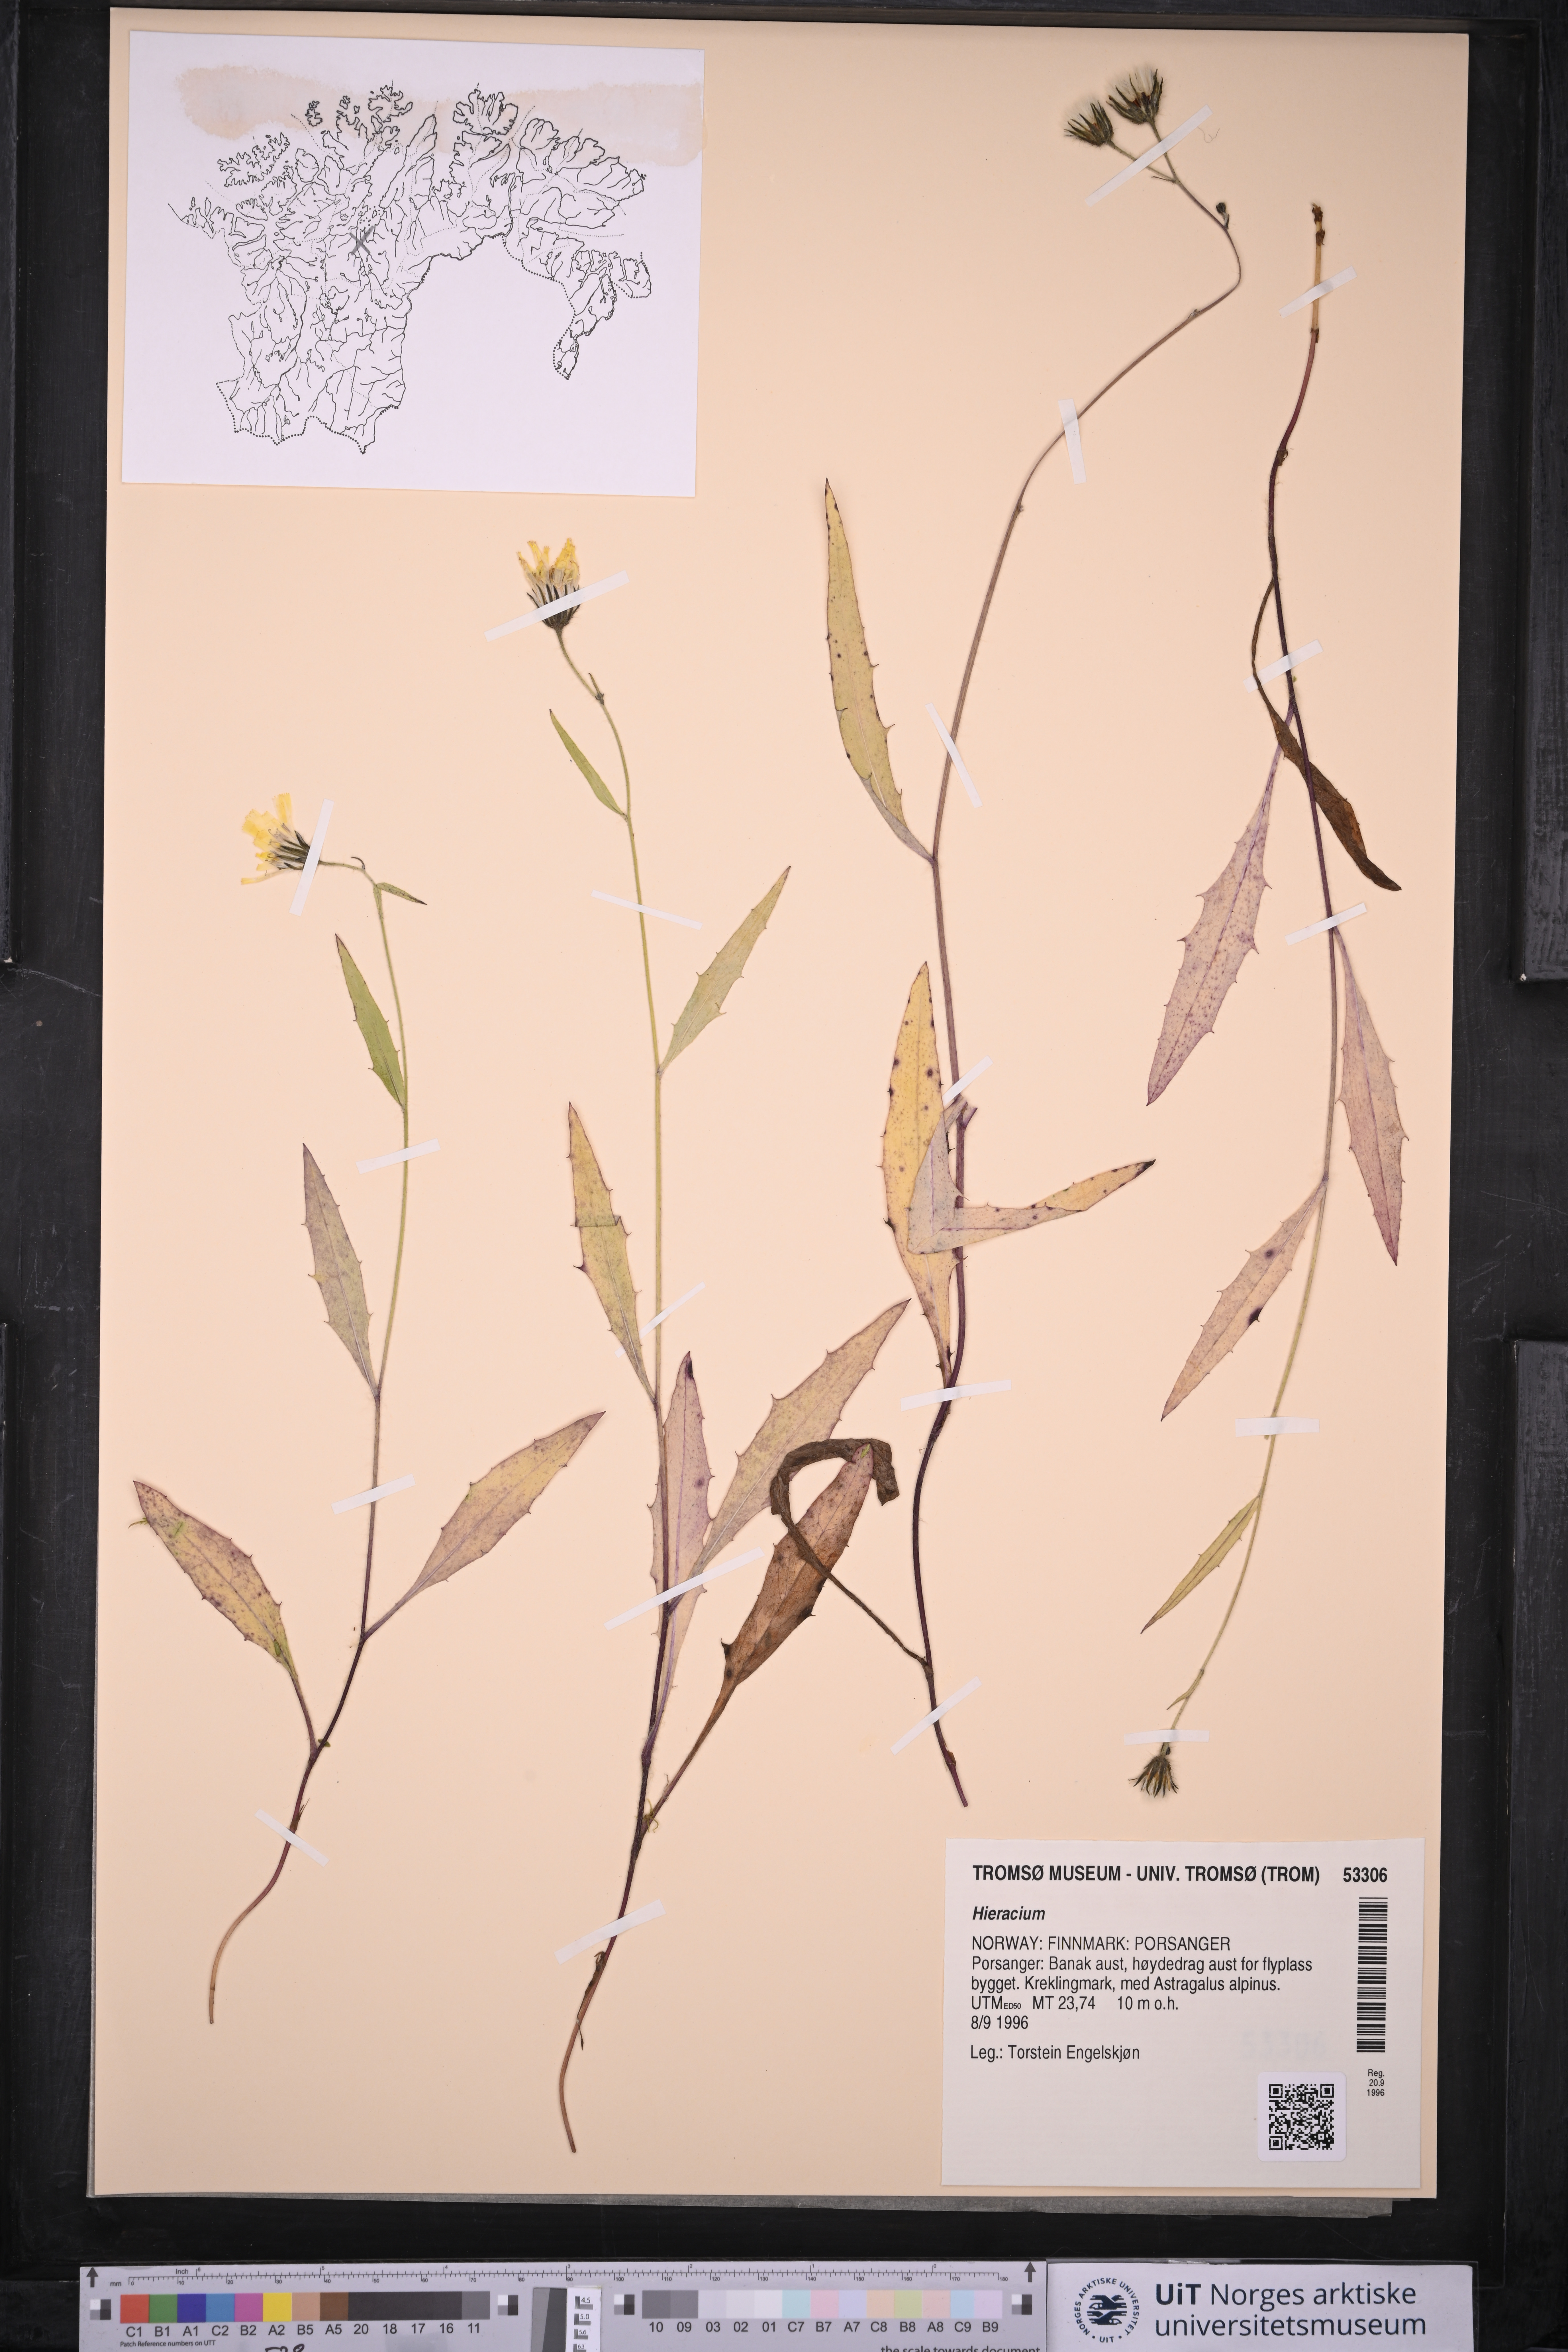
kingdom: Plantae
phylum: Tracheophyta
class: Magnoliopsida
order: Asterales
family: Asteraceae
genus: Hieracium
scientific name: Hieracium
